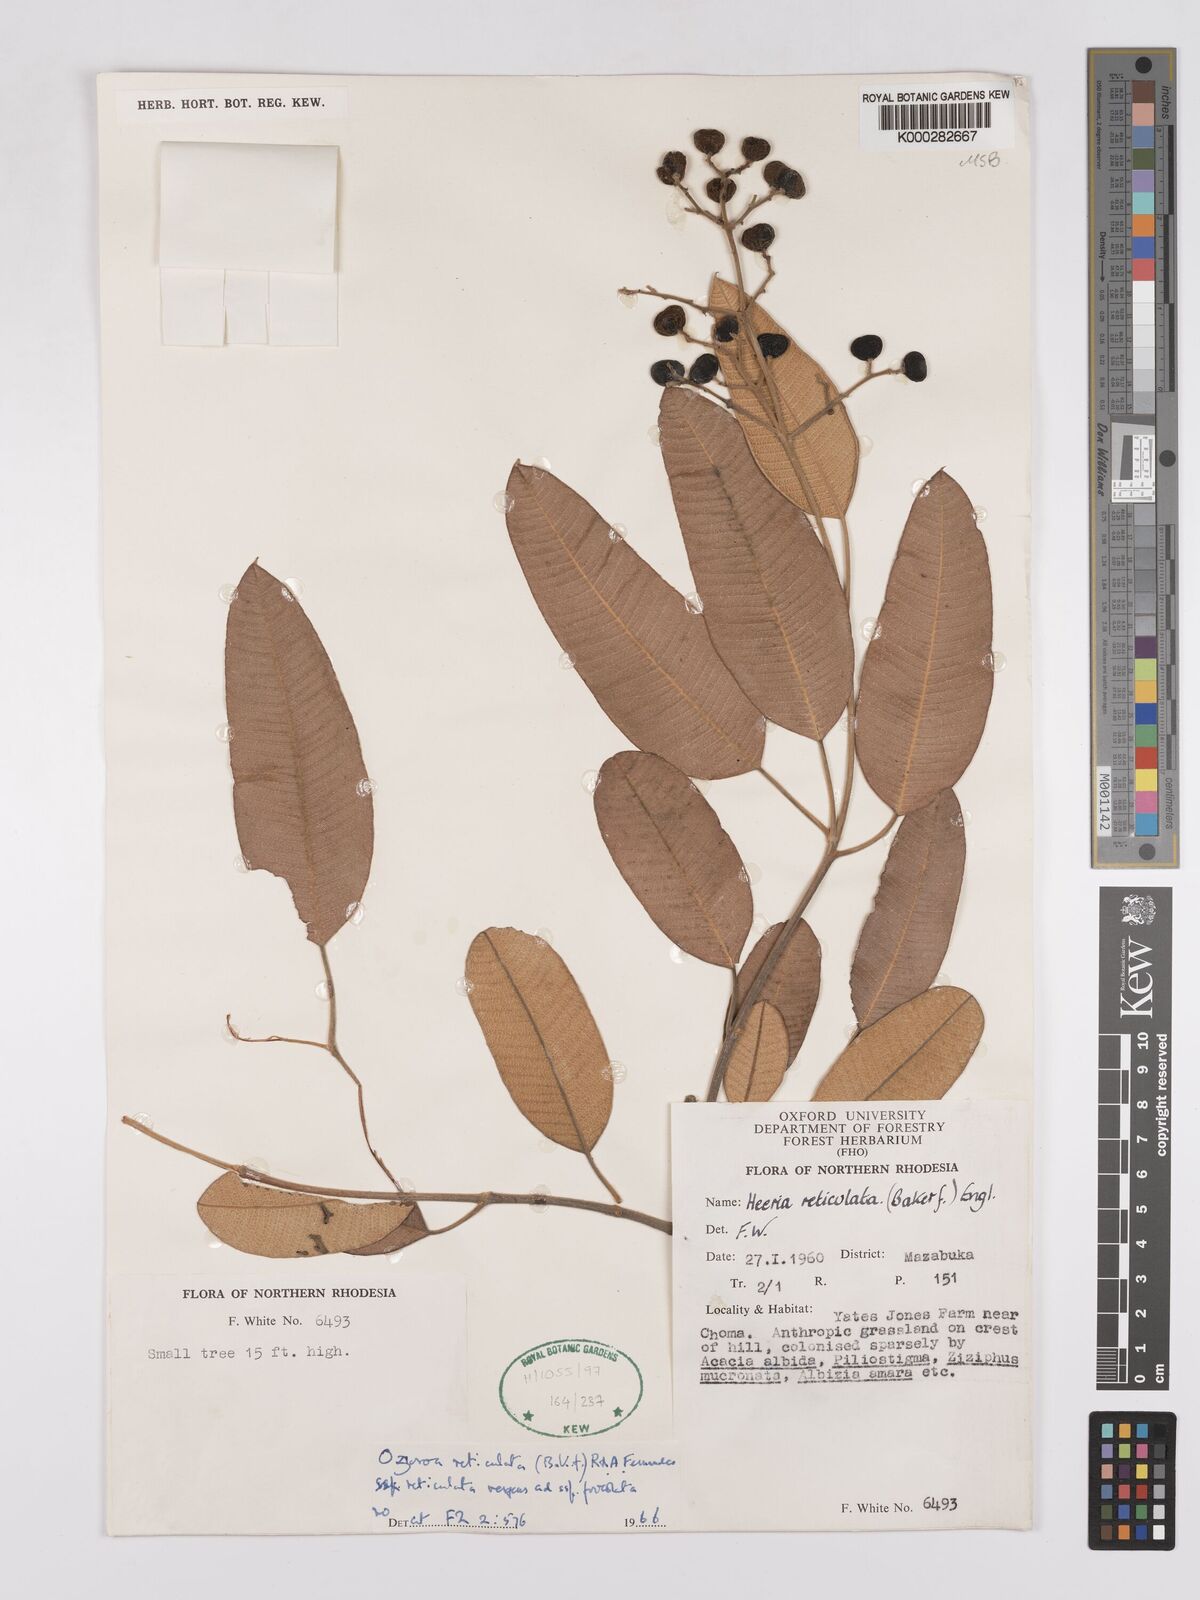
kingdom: Plantae
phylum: Tracheophyta
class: Magnoliopsida
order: Sapindales
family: Anacardiaceae
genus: Ozoroa
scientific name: Ozoroa insignis
